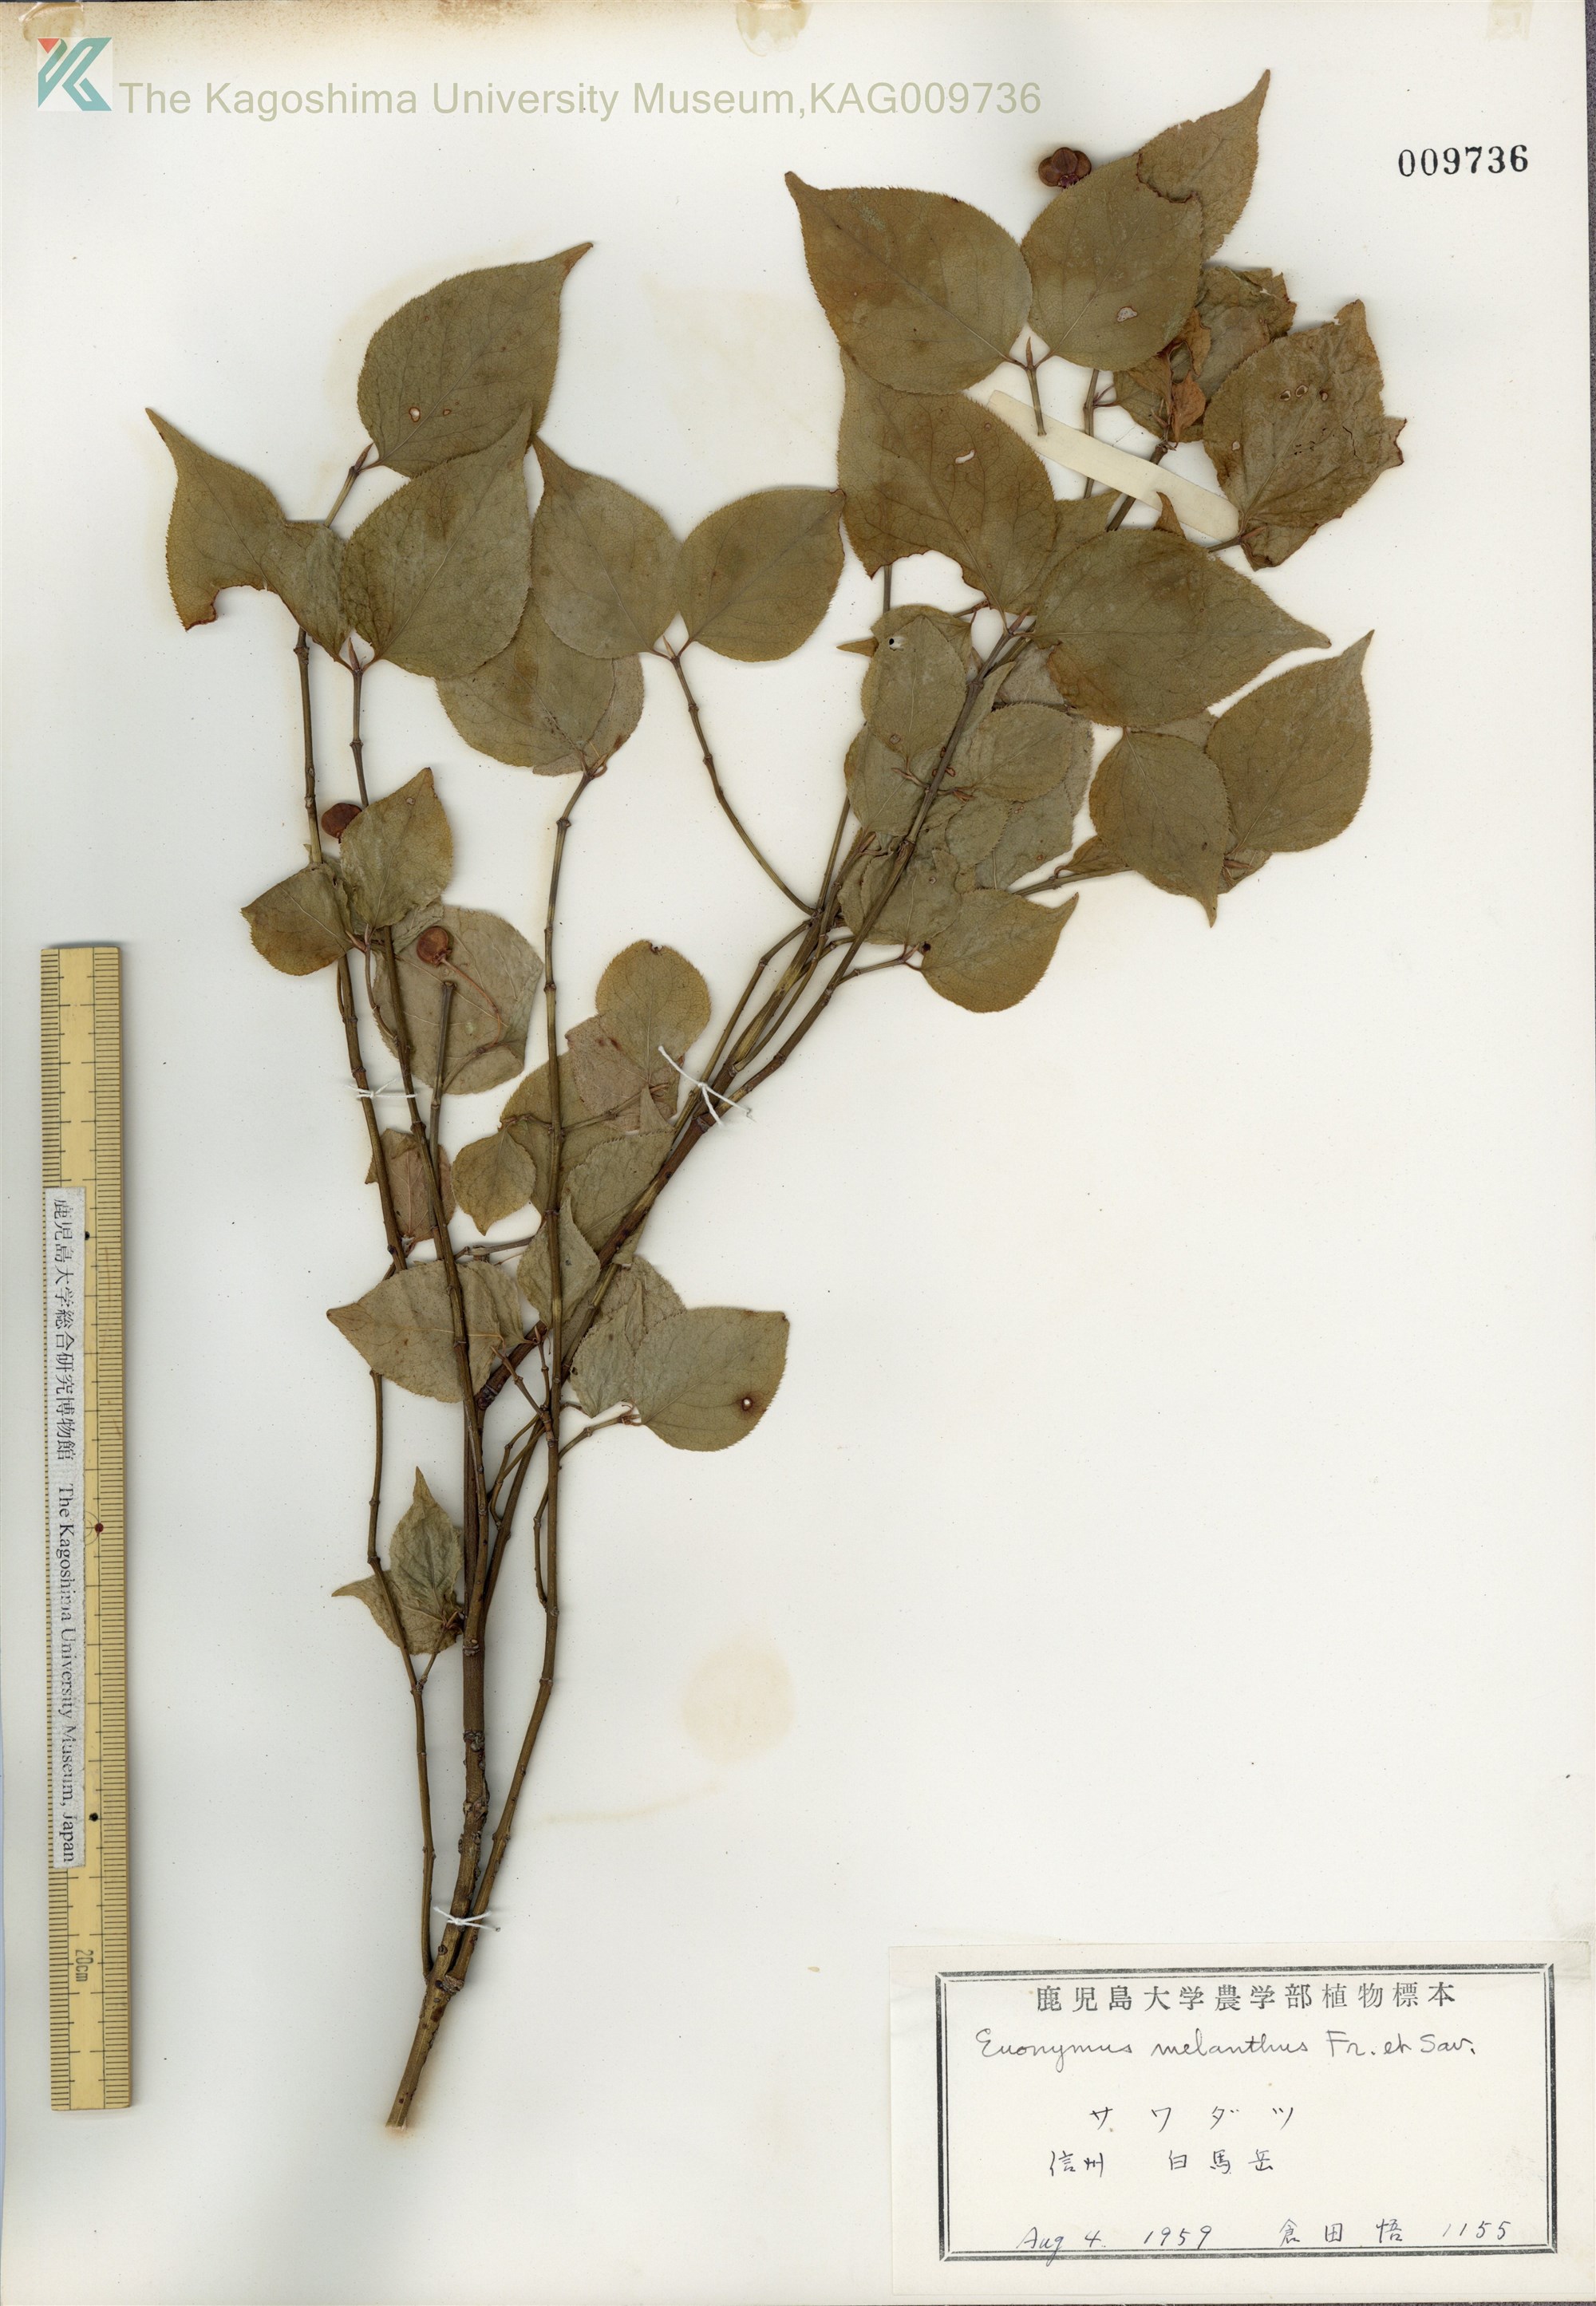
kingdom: Plantae
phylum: Tracheophyta
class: Magnoliopsida
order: Celastrales
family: Celastraceae
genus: Euonymus
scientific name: Euonymus melananthus
